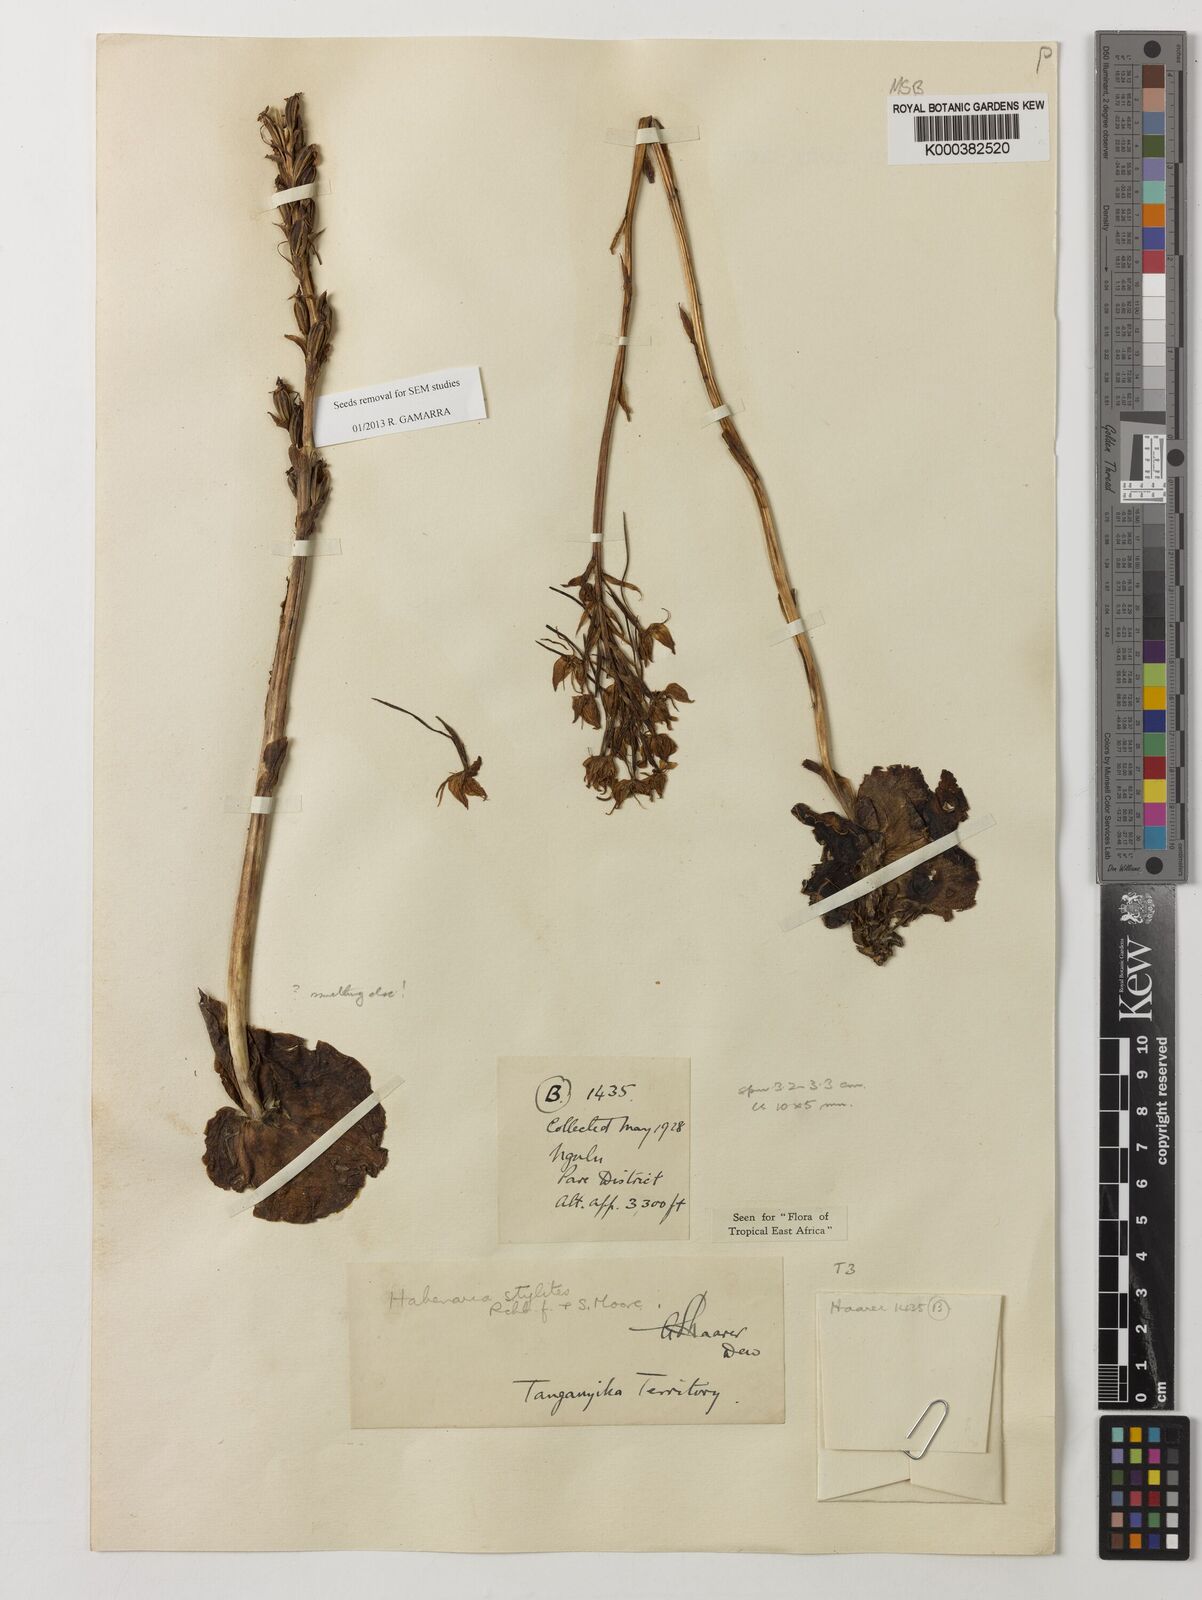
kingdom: Plantae
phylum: Tracheophyta
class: Liliopsida
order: Asparagales
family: Orchidaceae
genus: Habenaria
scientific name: Habenaria stylites
